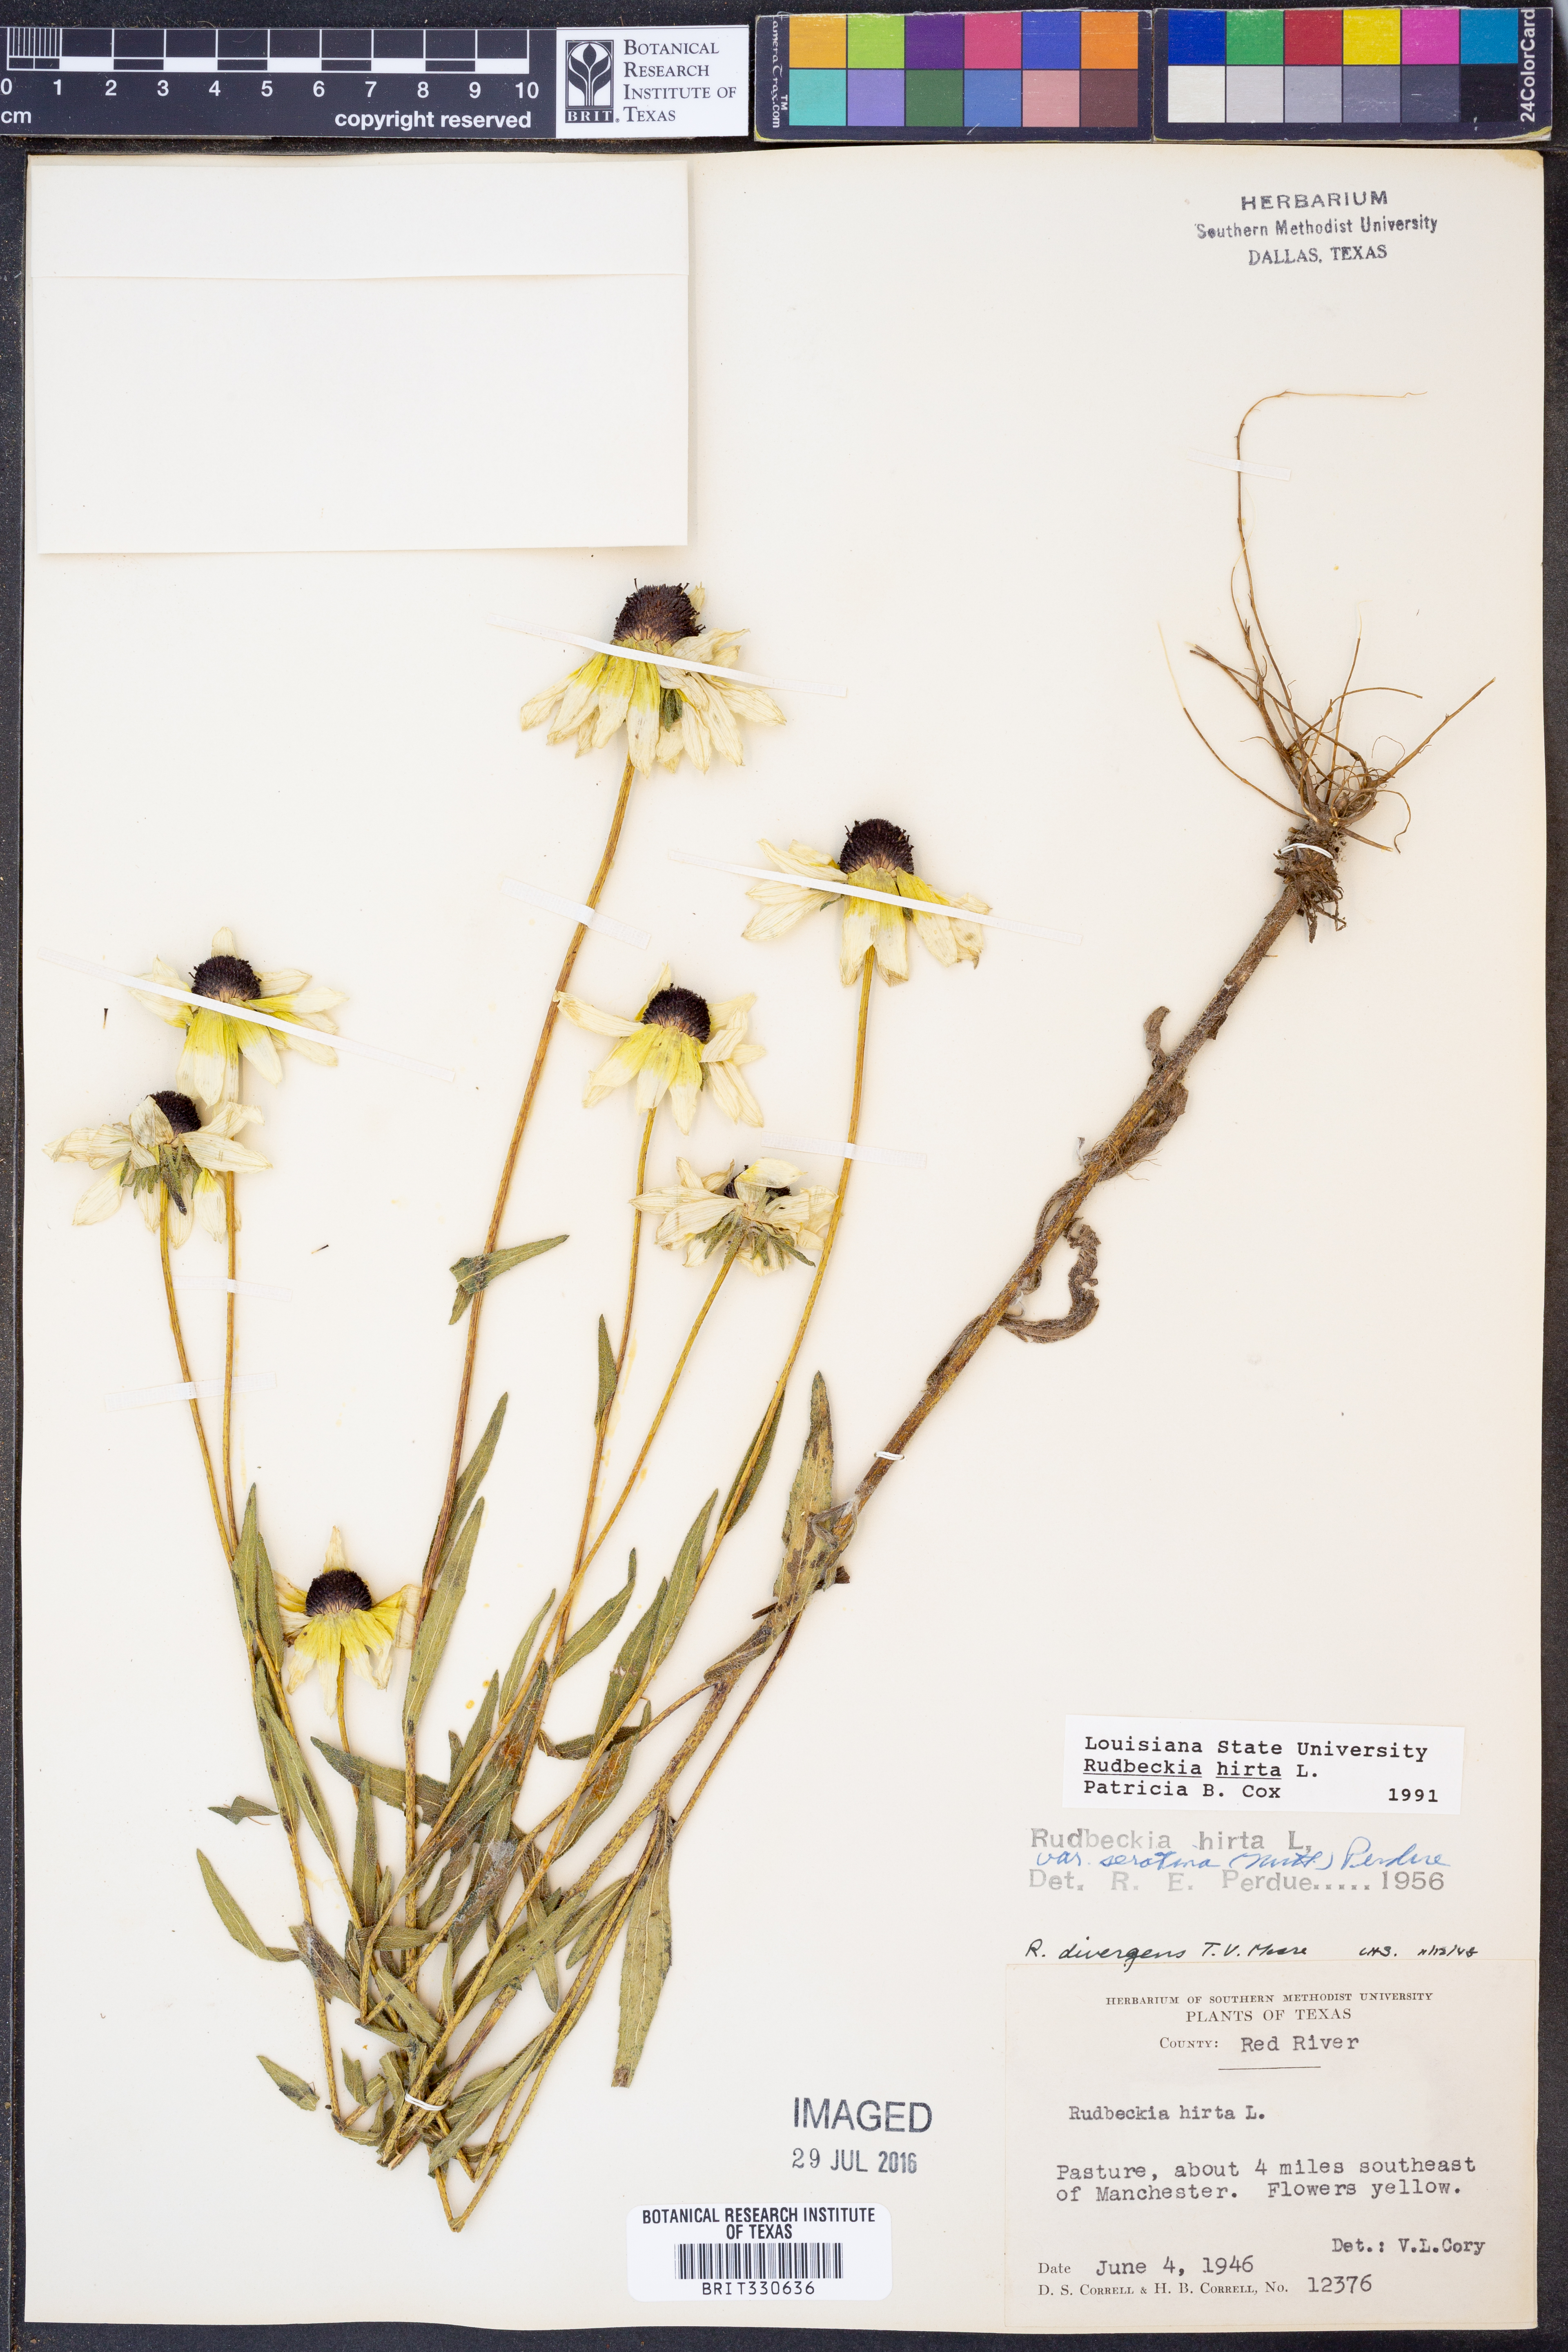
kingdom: Plantae
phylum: Tracheophyta
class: Magnoliopsida
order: Asterales
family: Asteraceae
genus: Rudbeckia
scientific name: Rudbeckia hirta
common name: Black-eyed-susan
